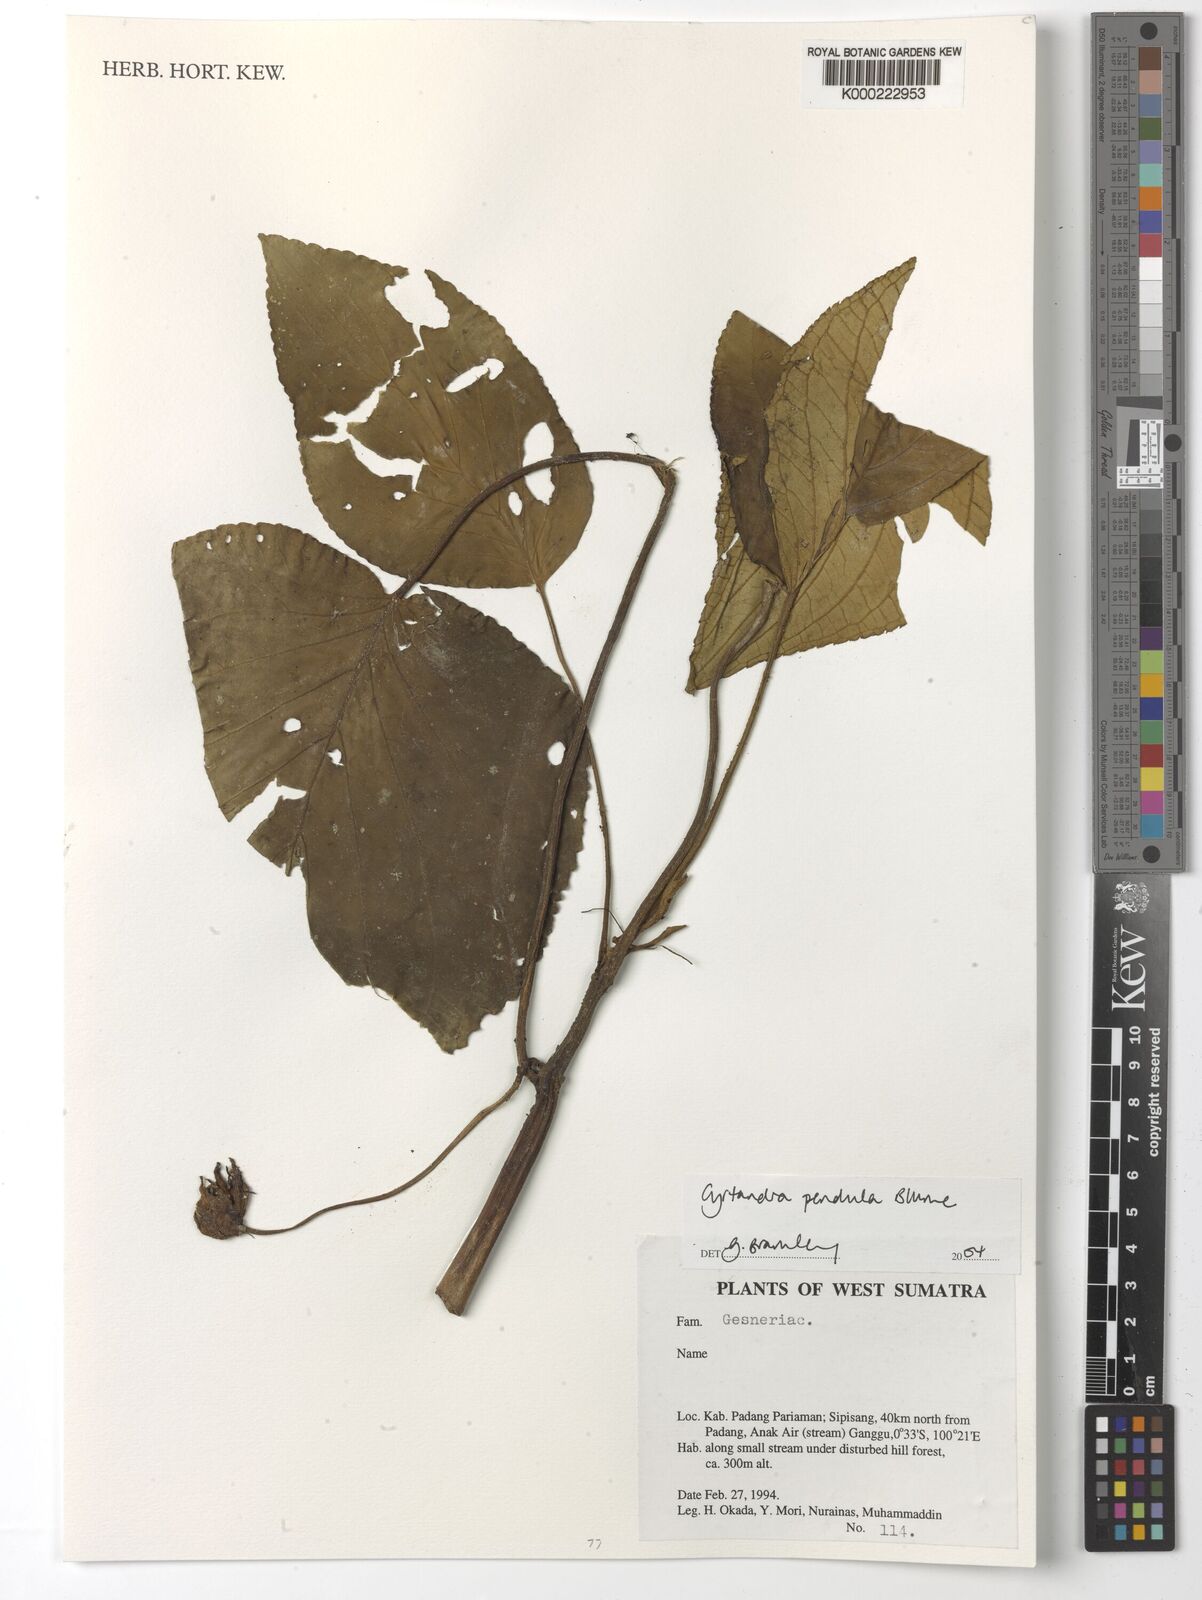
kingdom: Plantae
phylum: Tracheophyta
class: Magnoliopsida
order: Lamiales
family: Gesneriaceae
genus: Cyrtandra
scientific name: Cyrtandra pendula
